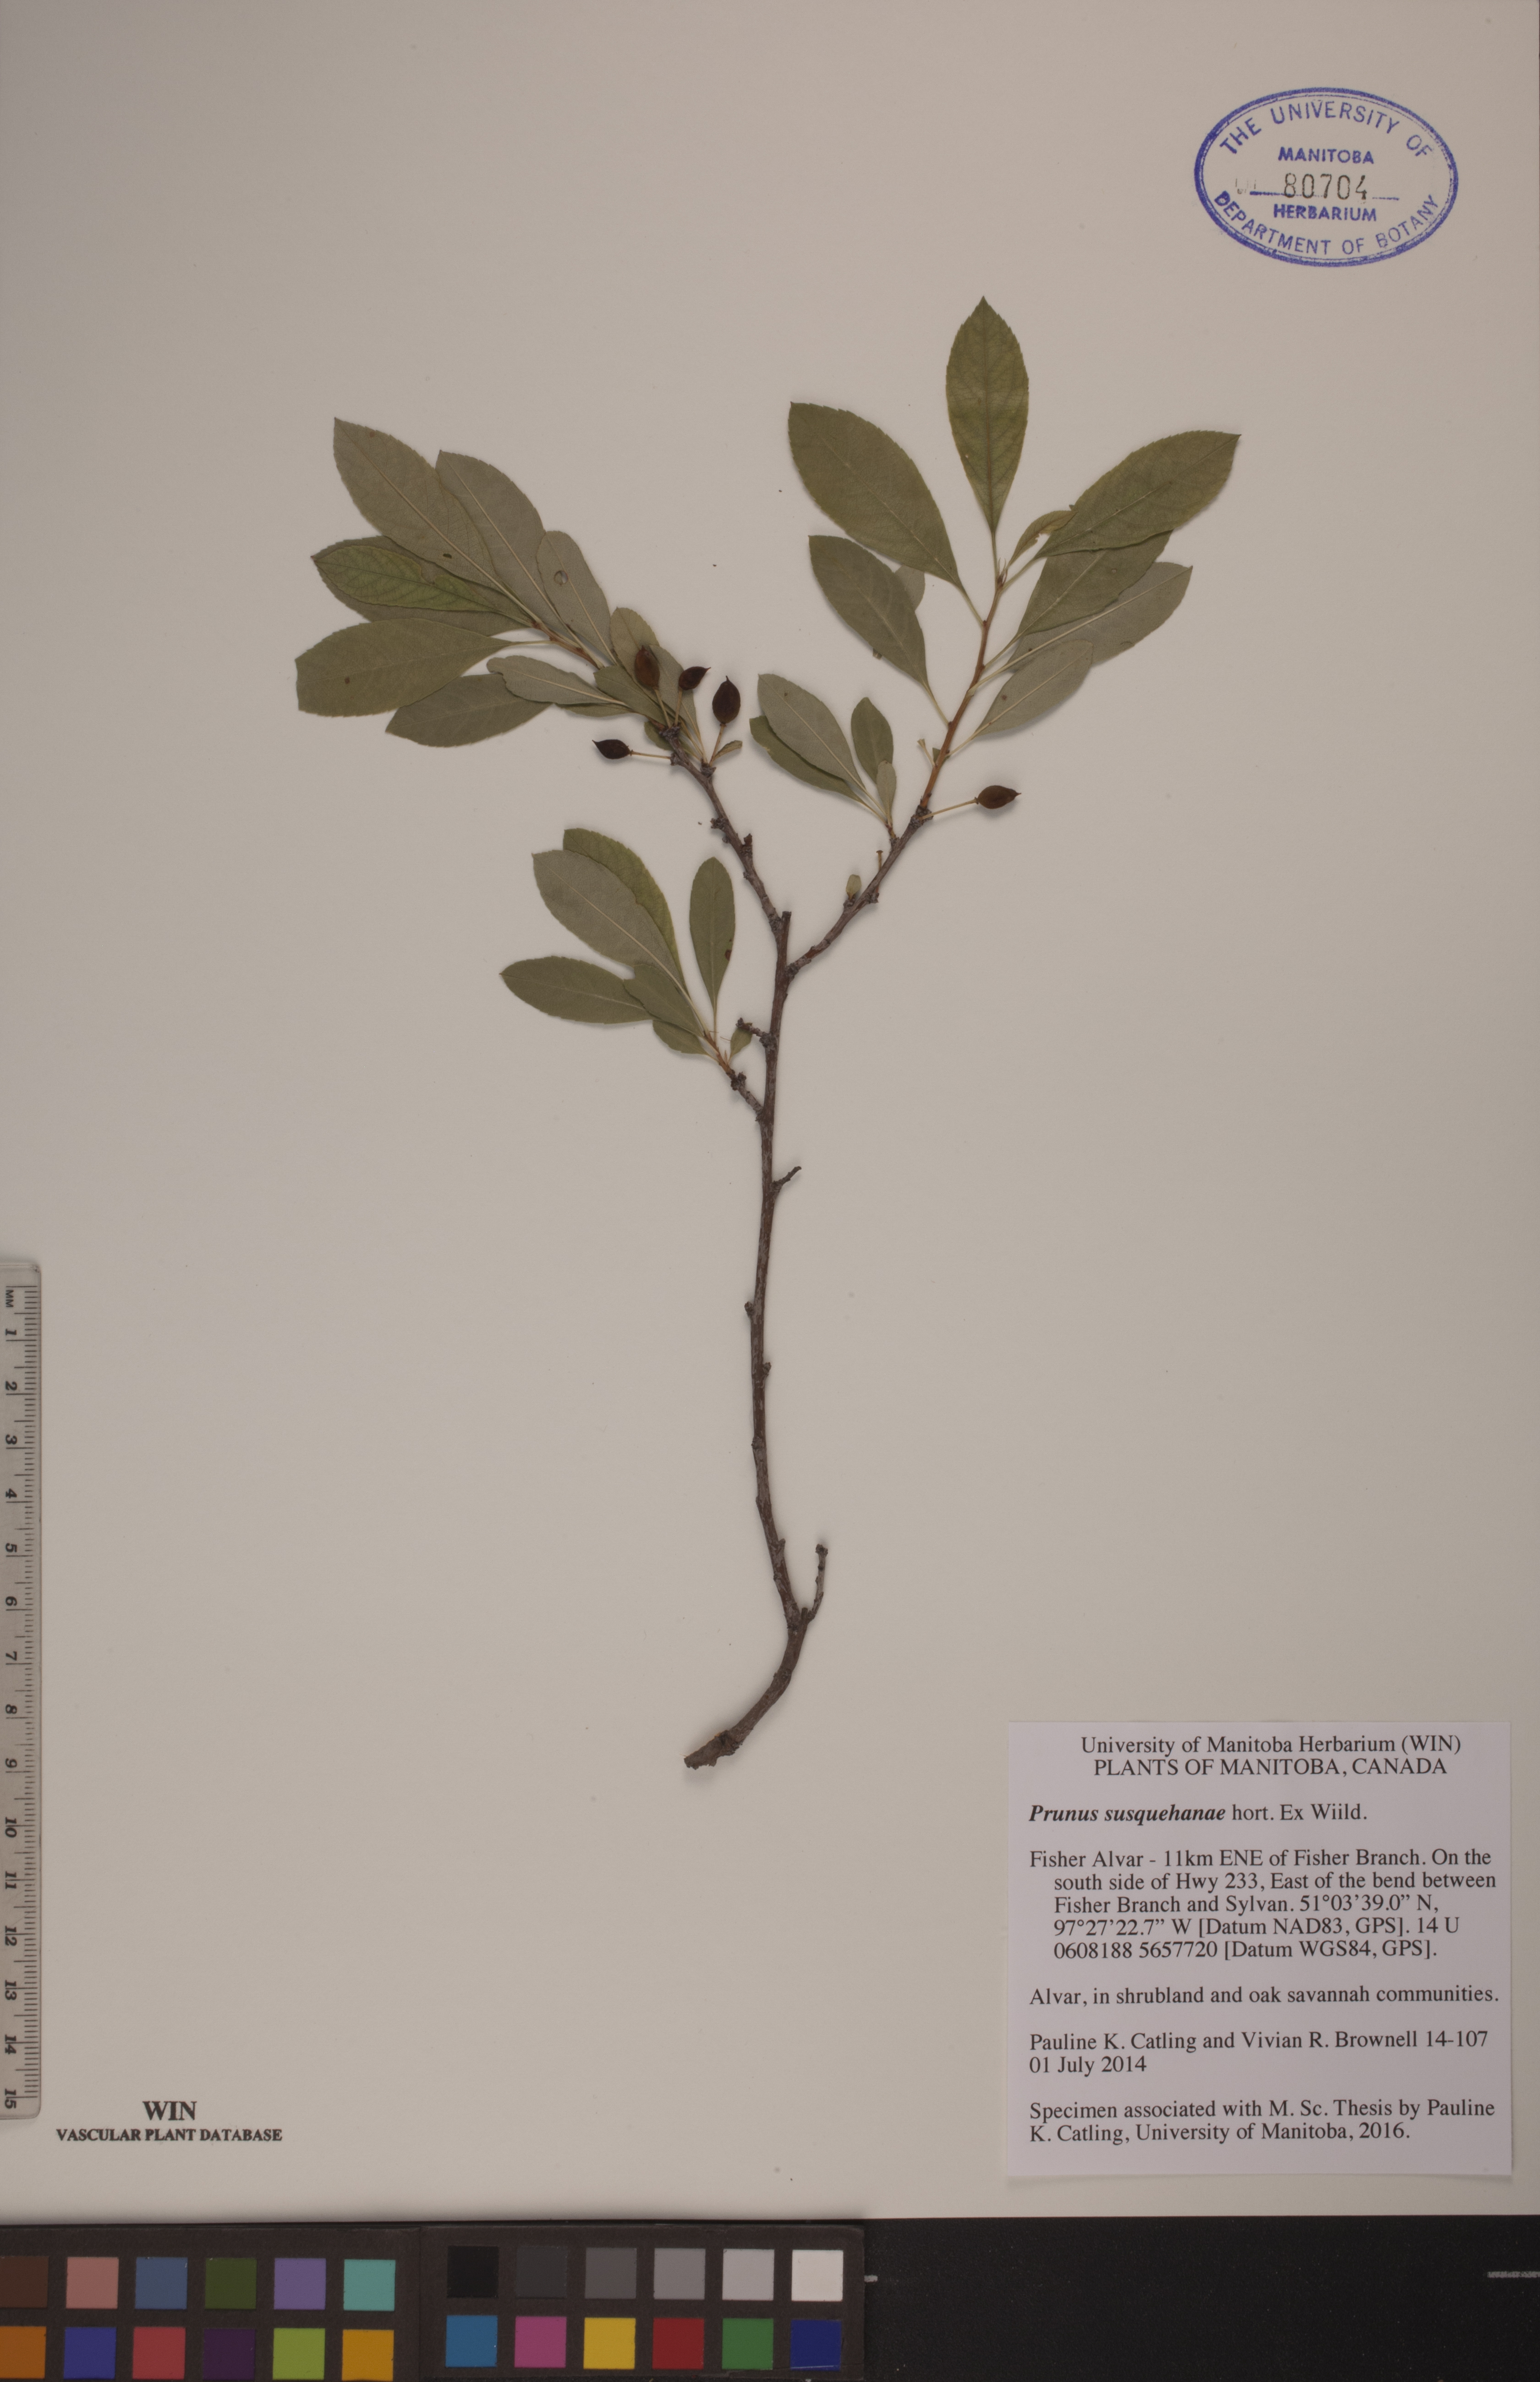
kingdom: Plantae
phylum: Tracheophyta
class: Magnoliopsida
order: Rosales
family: Rosaceae
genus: Prunus
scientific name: Prunus susquehanae
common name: Sesquehana sandcherry
